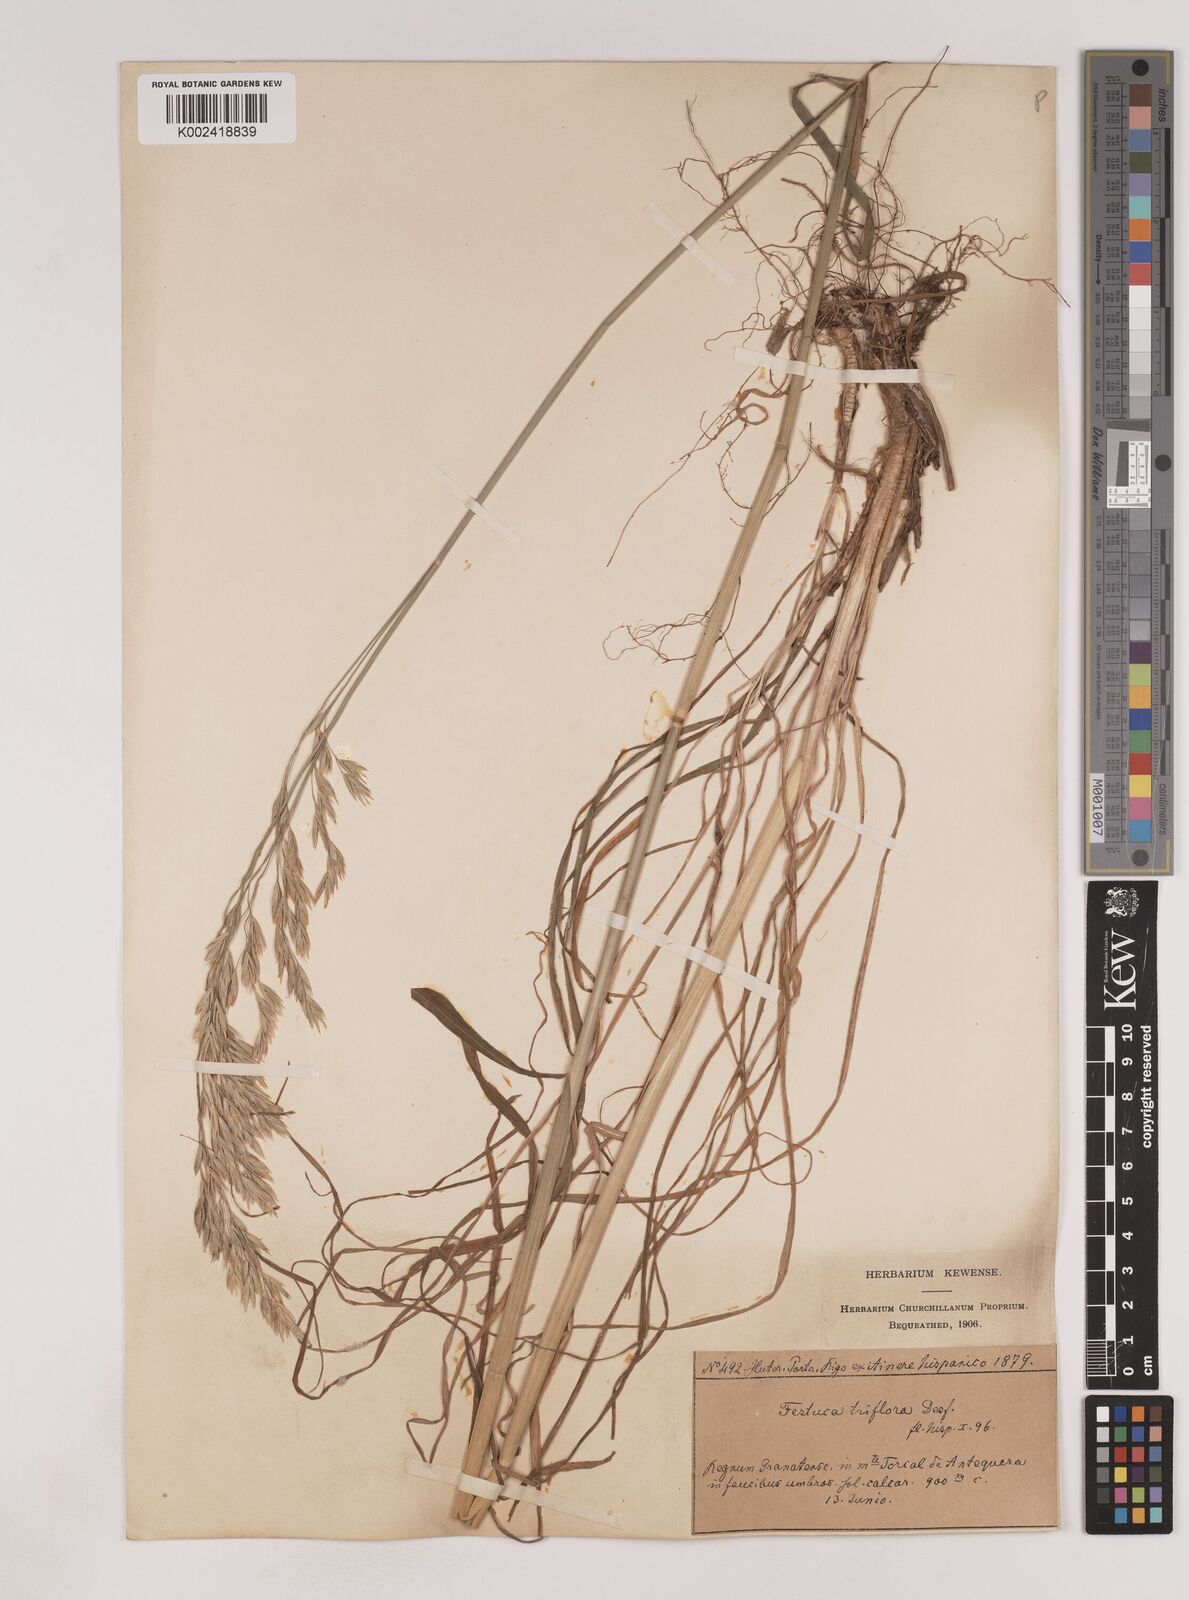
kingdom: Plantae
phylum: Tracheophyta
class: Liliopsida
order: Poales
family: Poaceae
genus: Patzkea
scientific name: Patzkea patula
